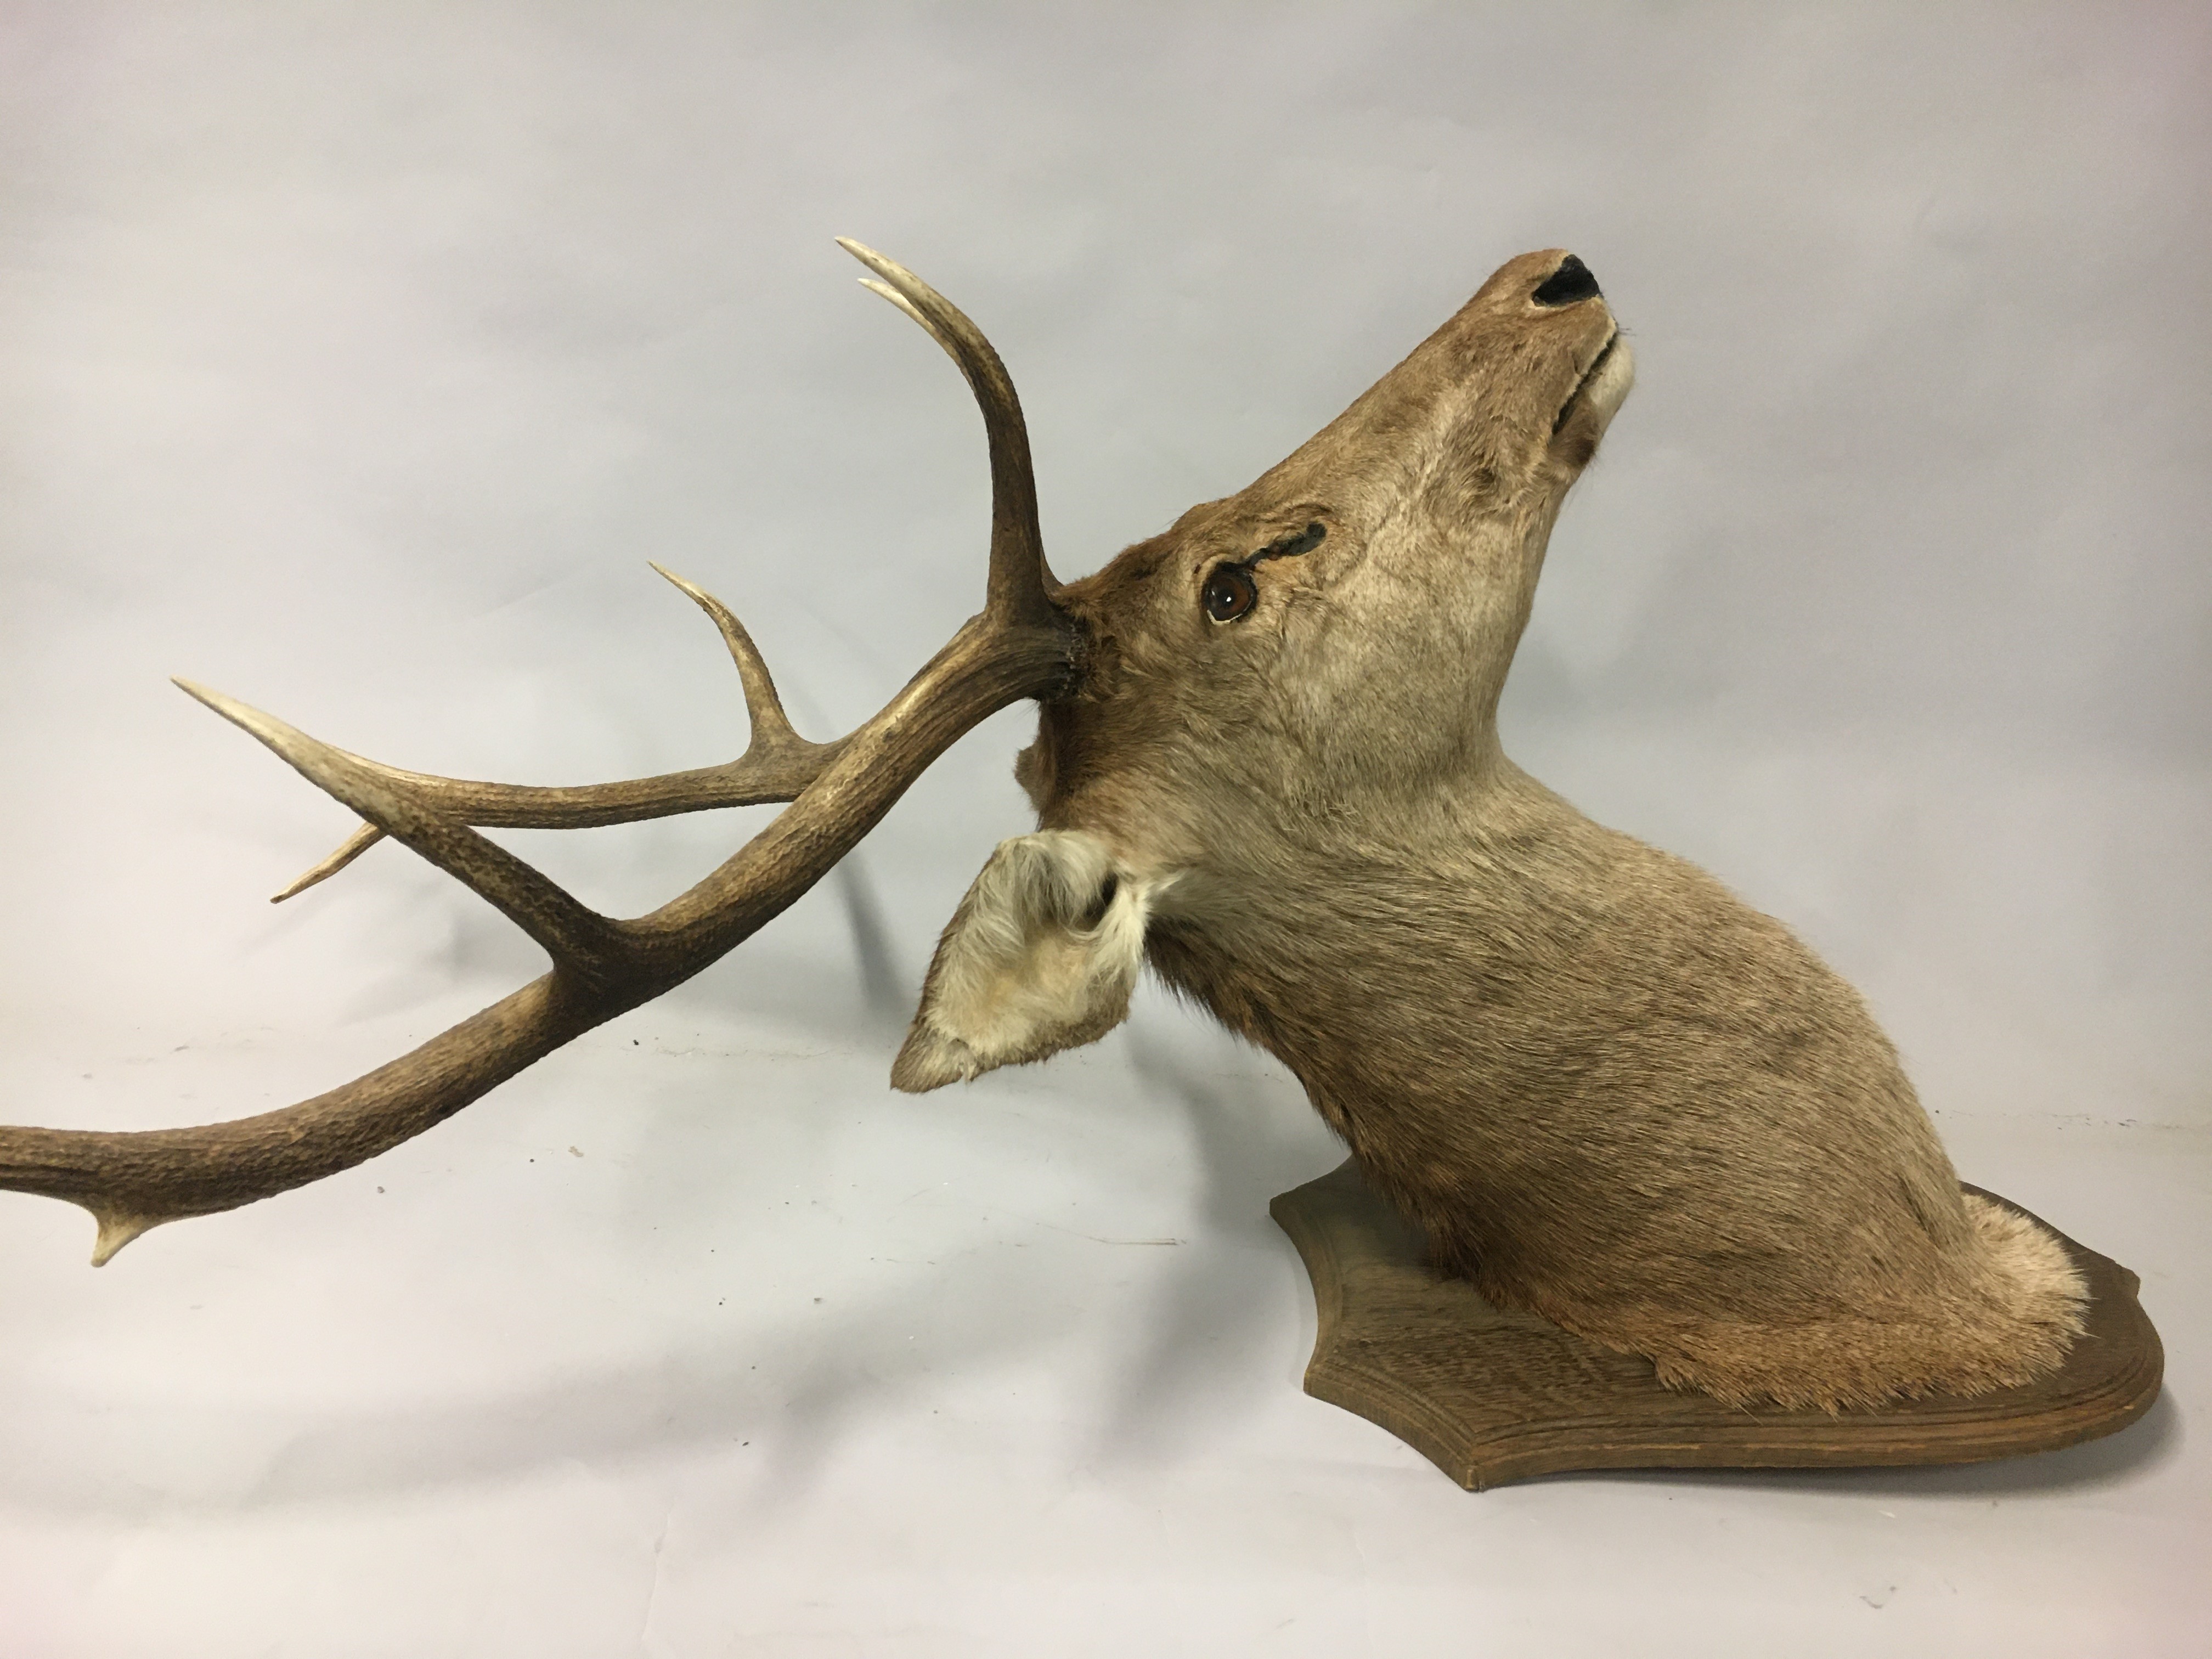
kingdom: Animalia
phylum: Chordata
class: Mammalia
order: Artiodactyla
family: Cervidae
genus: Cervus
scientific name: Cervus elaphus
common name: Red deer
